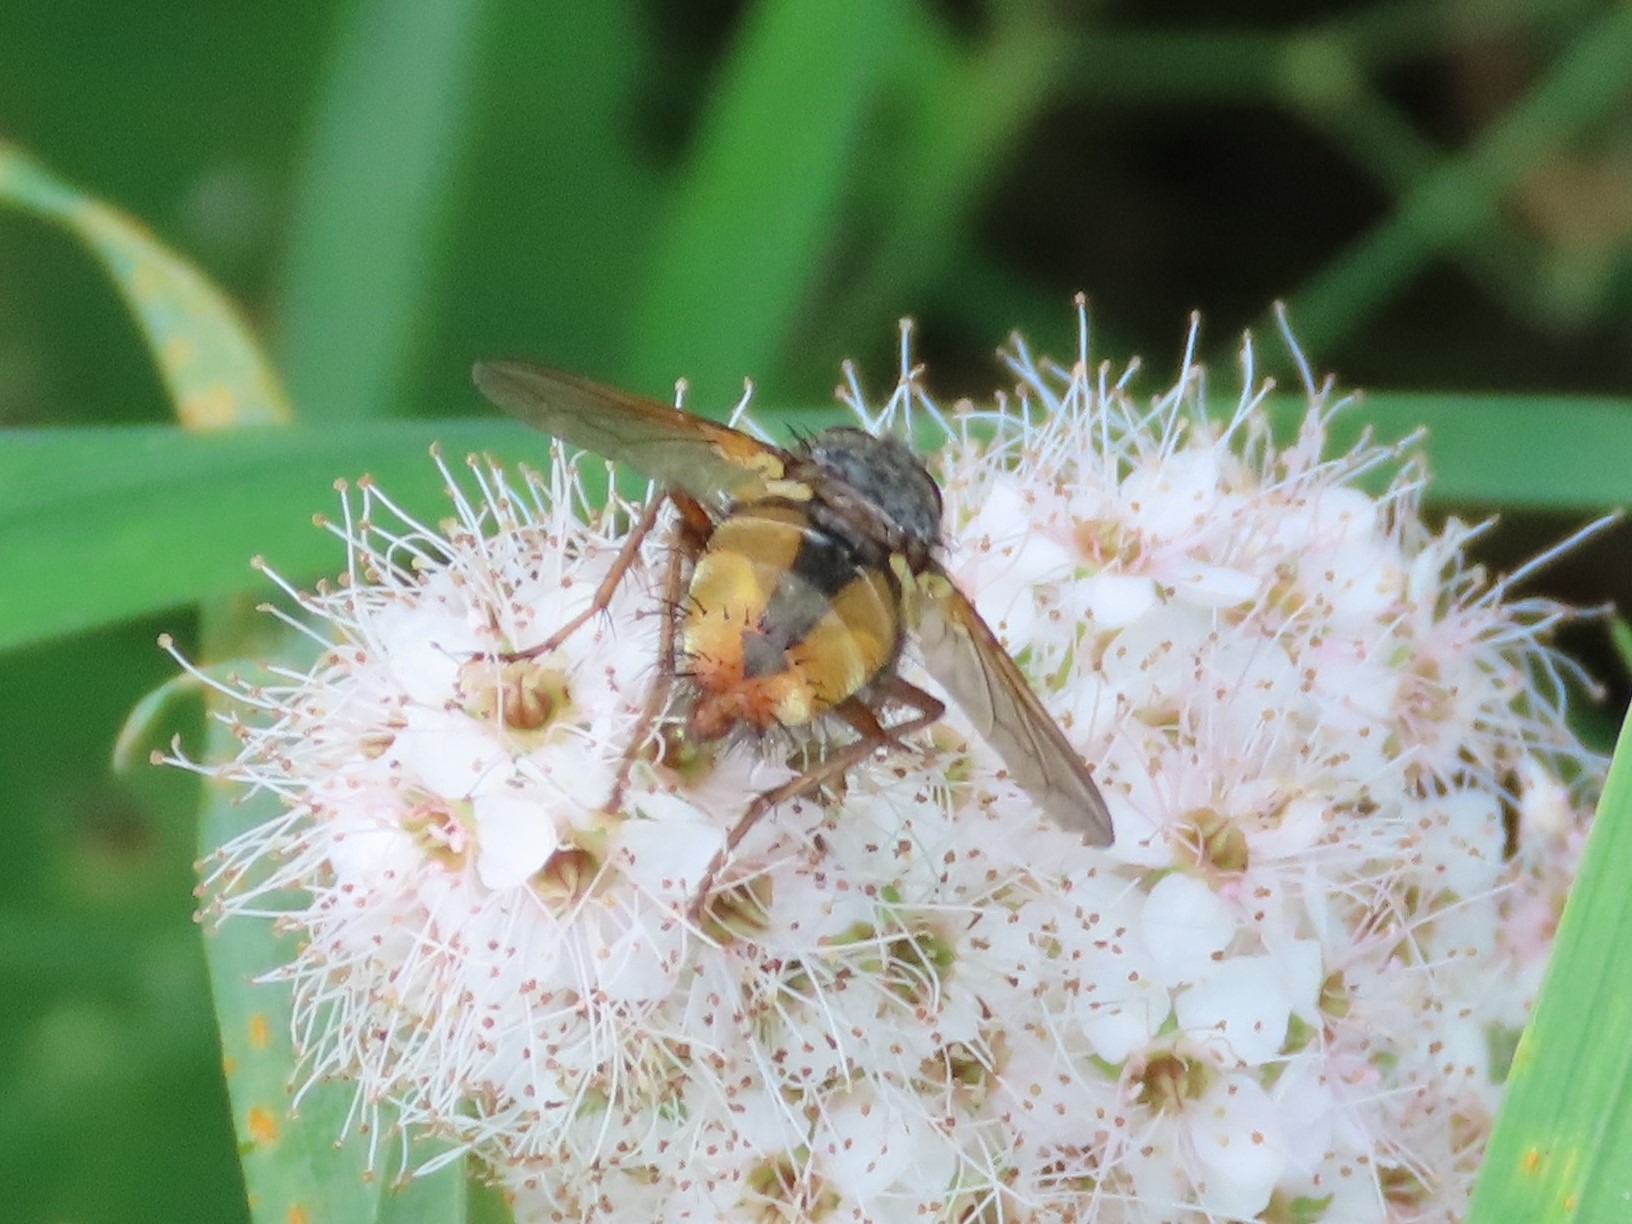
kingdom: Animalia
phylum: Arthropoda
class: Insecta
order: Diptera
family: Tachinidae
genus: Tachina
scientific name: Tachina fera
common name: Mellemfluen oskar
